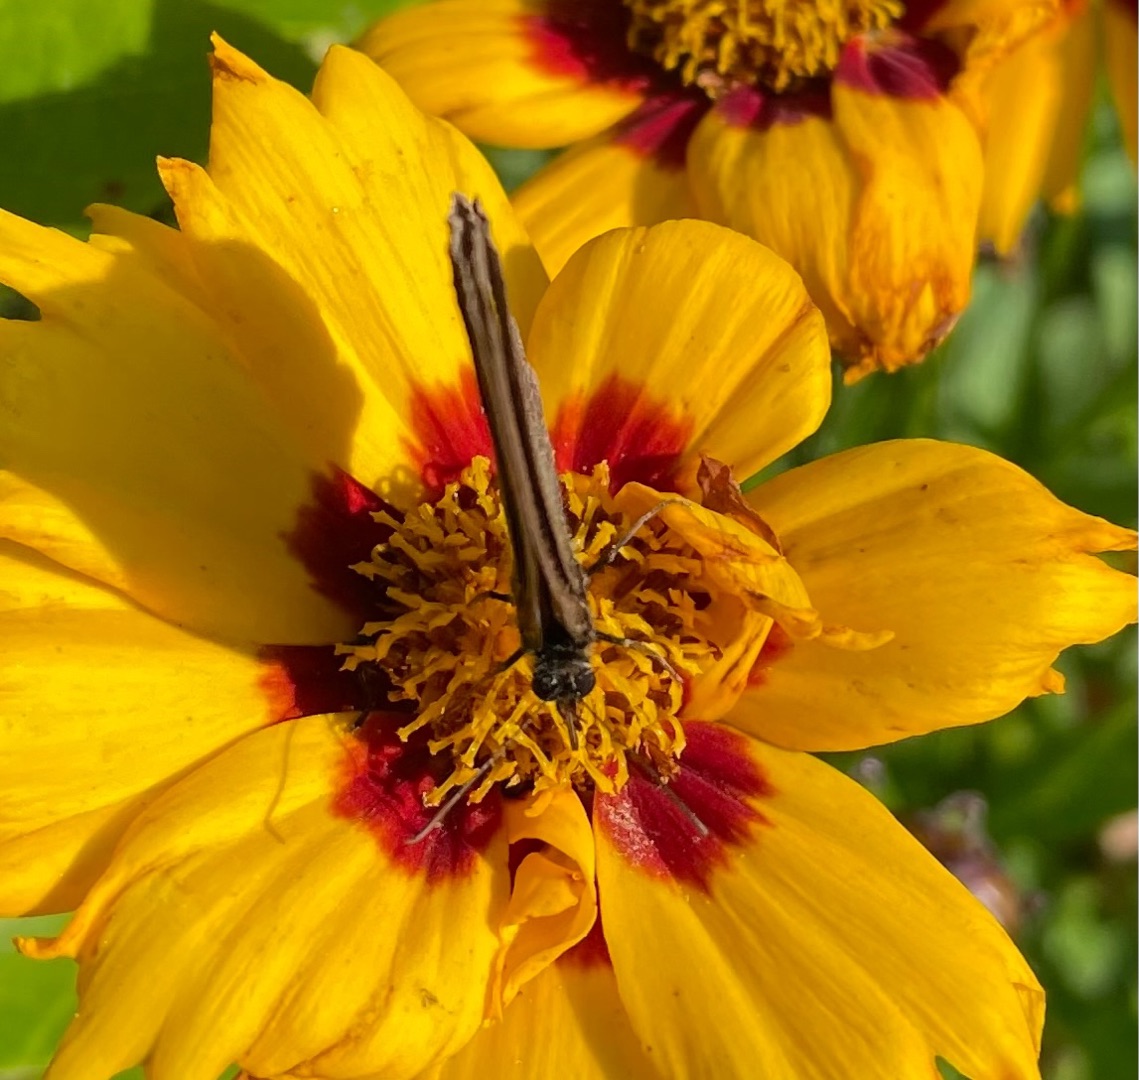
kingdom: Animalia
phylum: Arthropoda
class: Insecta
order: Lepidoptera
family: Nymphalidae
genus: Aphantopus
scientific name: Aphantopus hyperantus
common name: Engrandøje
